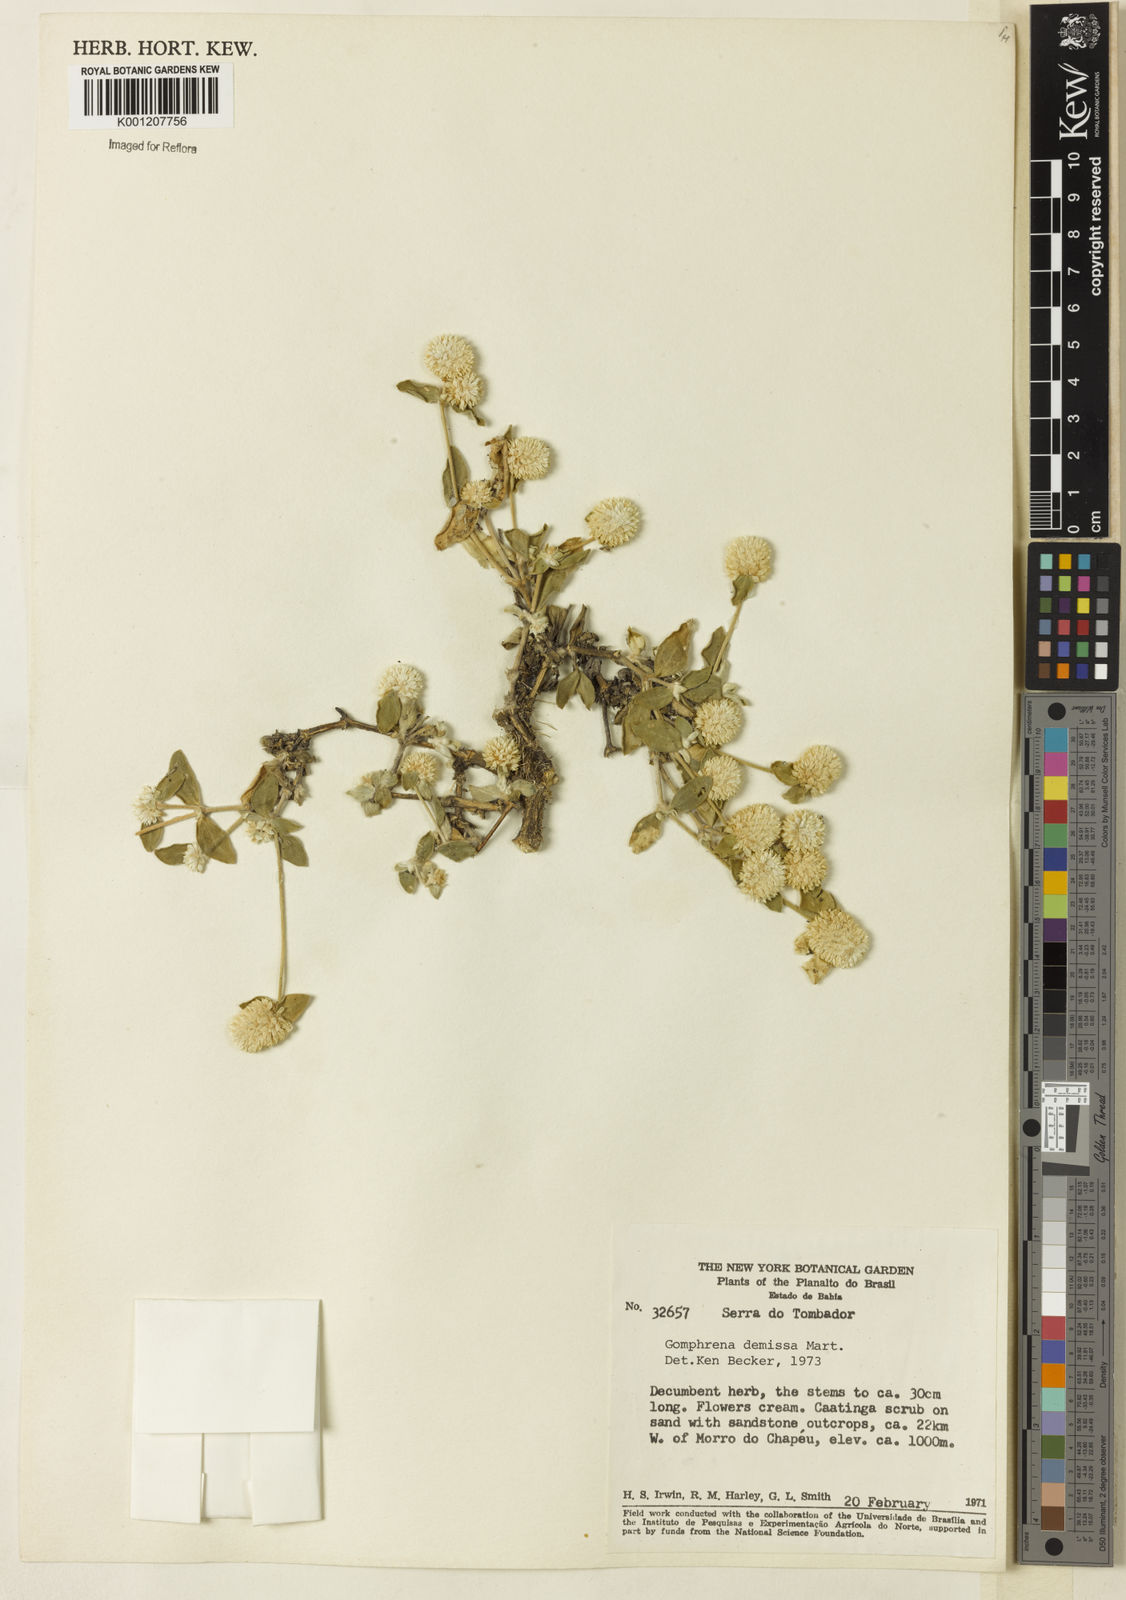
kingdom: Plantae
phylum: Tracheophyta
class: Magnoliopsida
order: Caryophyllales
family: Amaranthaceae
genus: Gomphrena
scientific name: Gomphrena demissa
